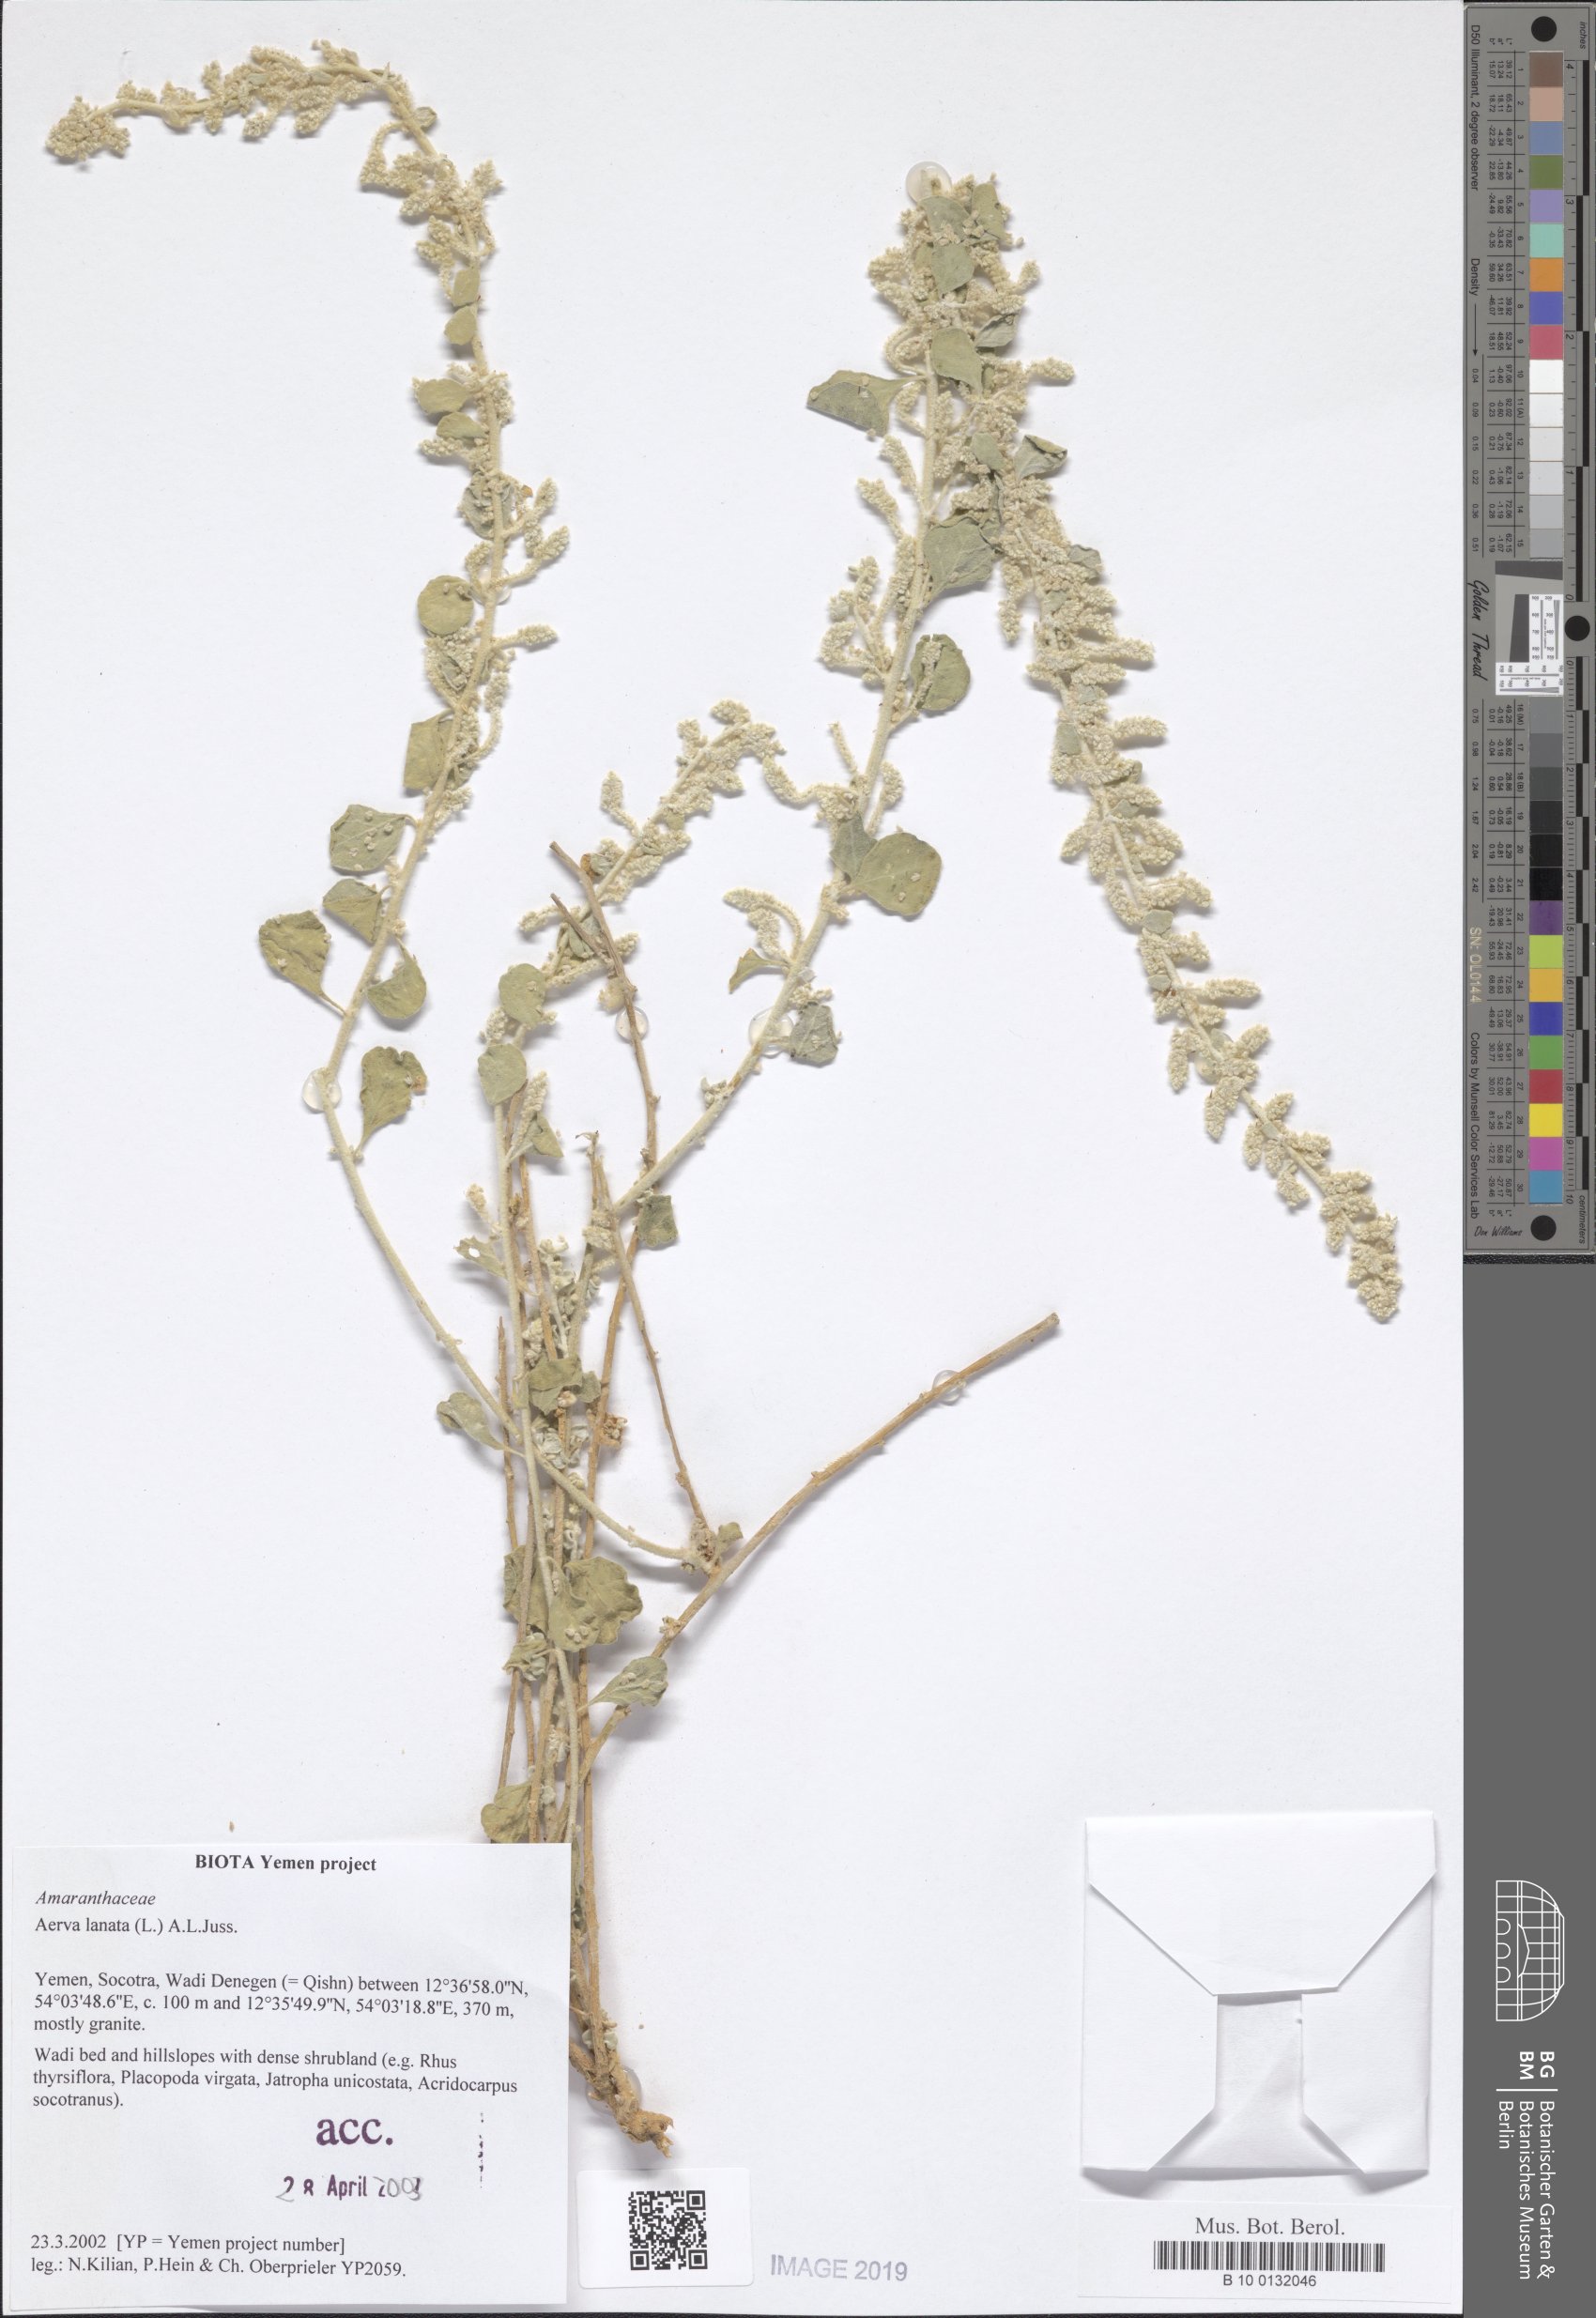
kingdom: Plantae
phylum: Tracheophyta
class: Magnoliopsida
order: Caryophyllales
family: Amaranthaceae
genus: Ouret
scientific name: Ouret lanata
